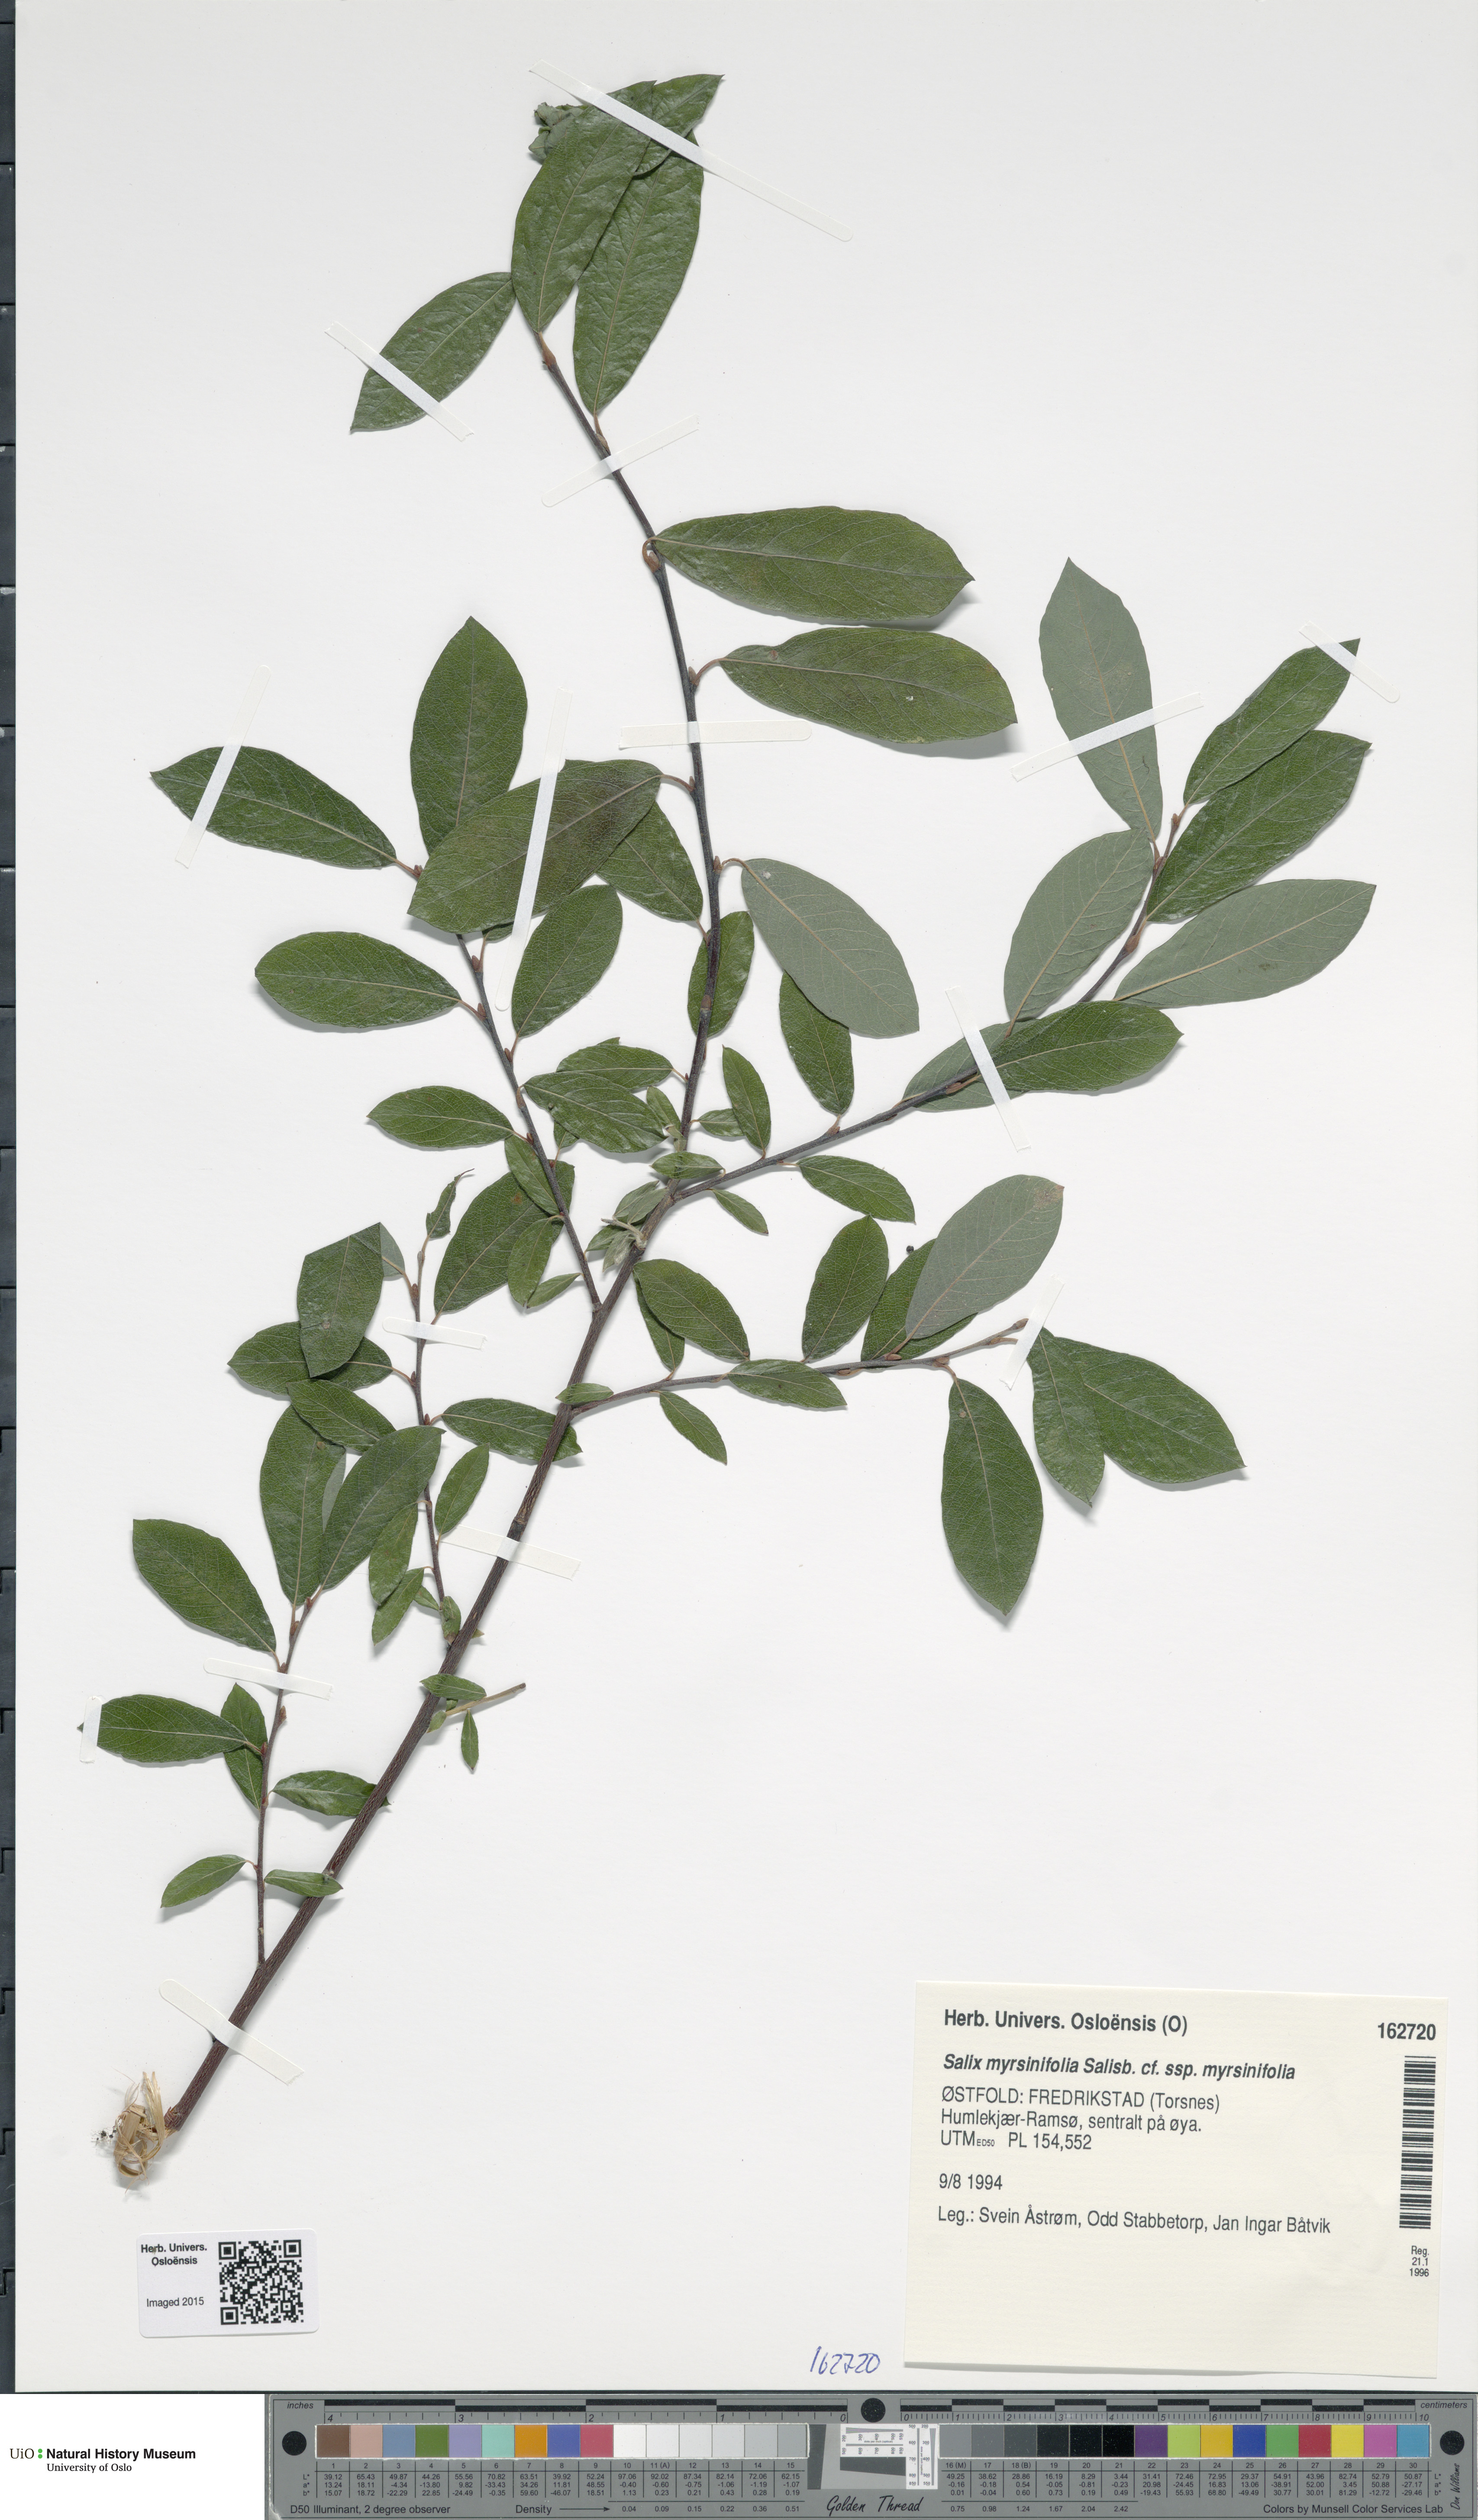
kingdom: Plantae
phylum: Tracheophyta
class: Magnoliopsida
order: Malpighiales
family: Salicaceae
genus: Salix
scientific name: Salix myrsinifolia
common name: Dark-leaved willow
